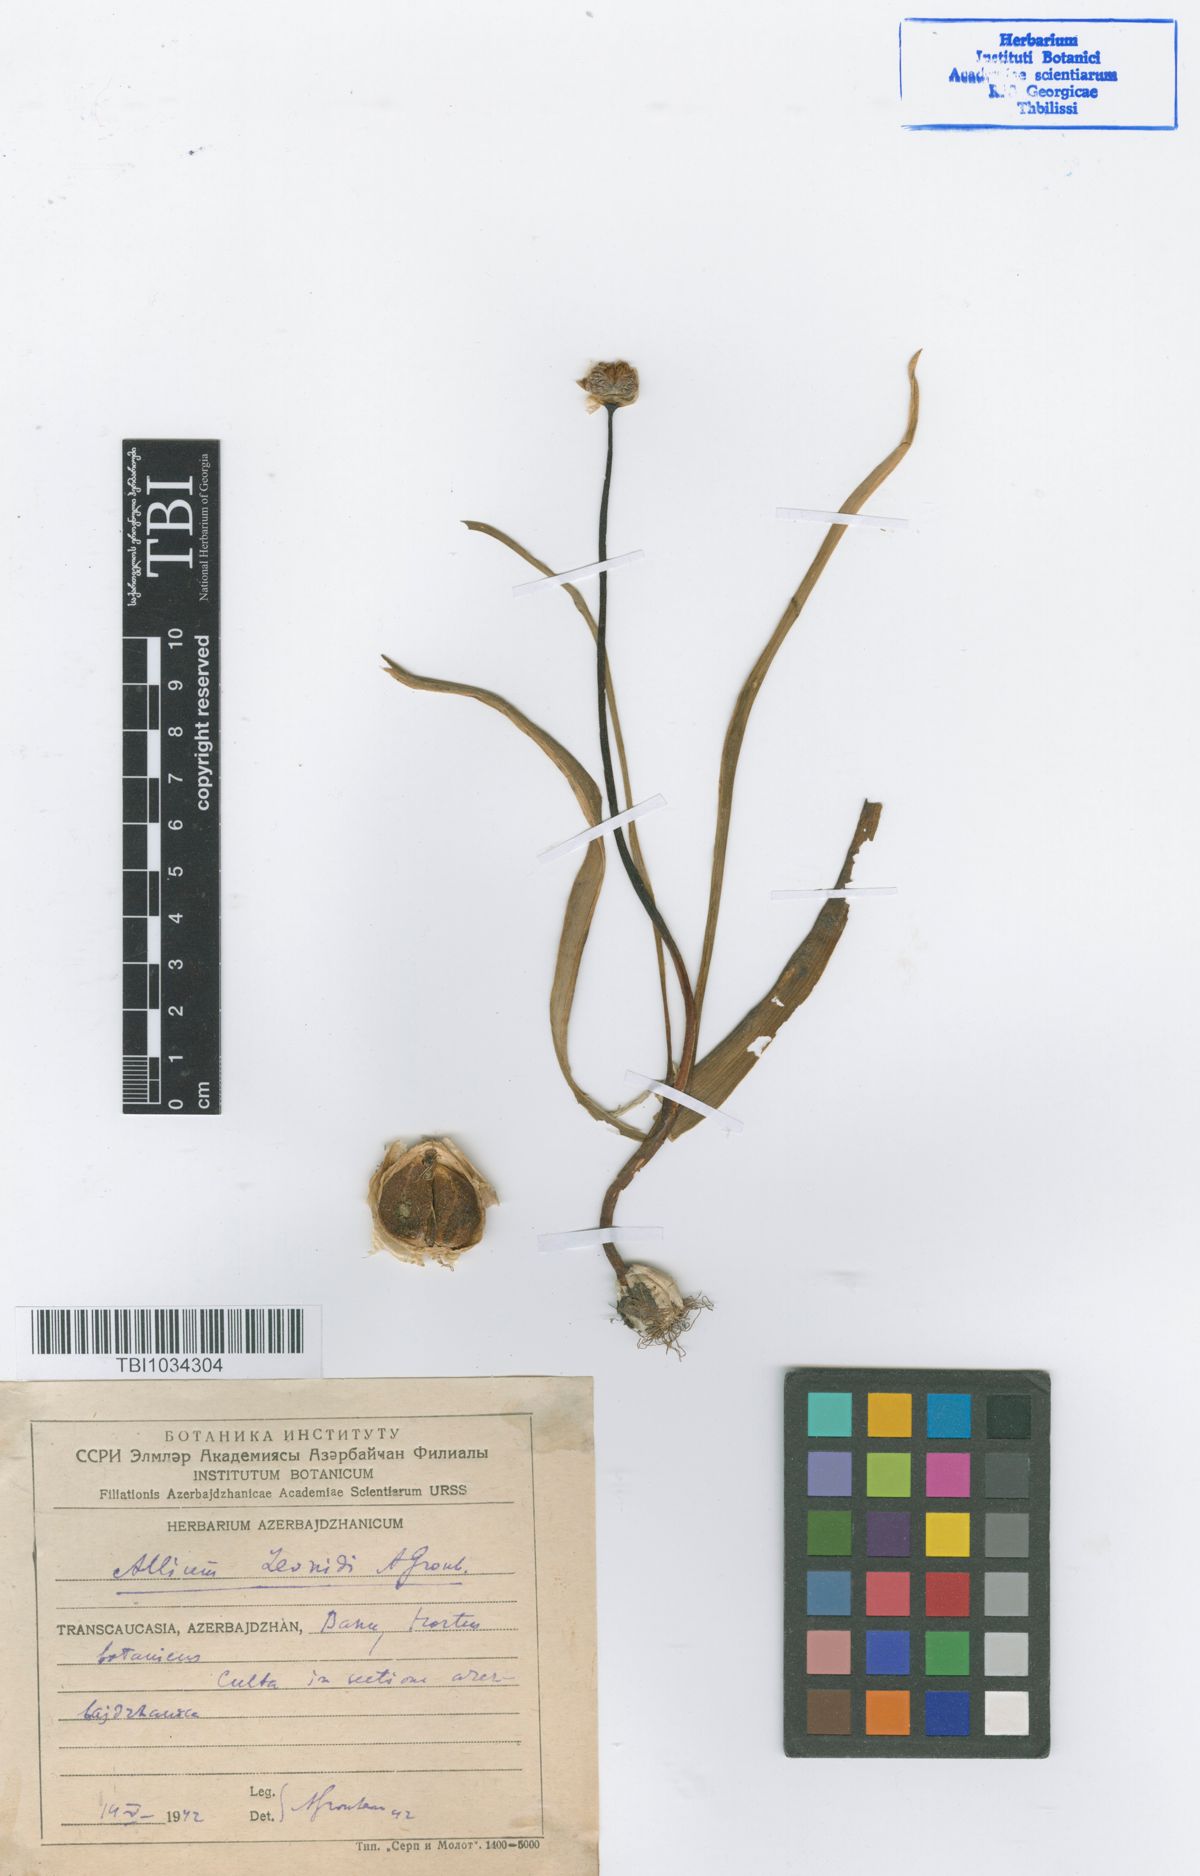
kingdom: Plantae
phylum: Tracheophyta
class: Liliopsida
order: Asparagales
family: Amaryllidaceae
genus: Allium
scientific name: Allium woronowii
